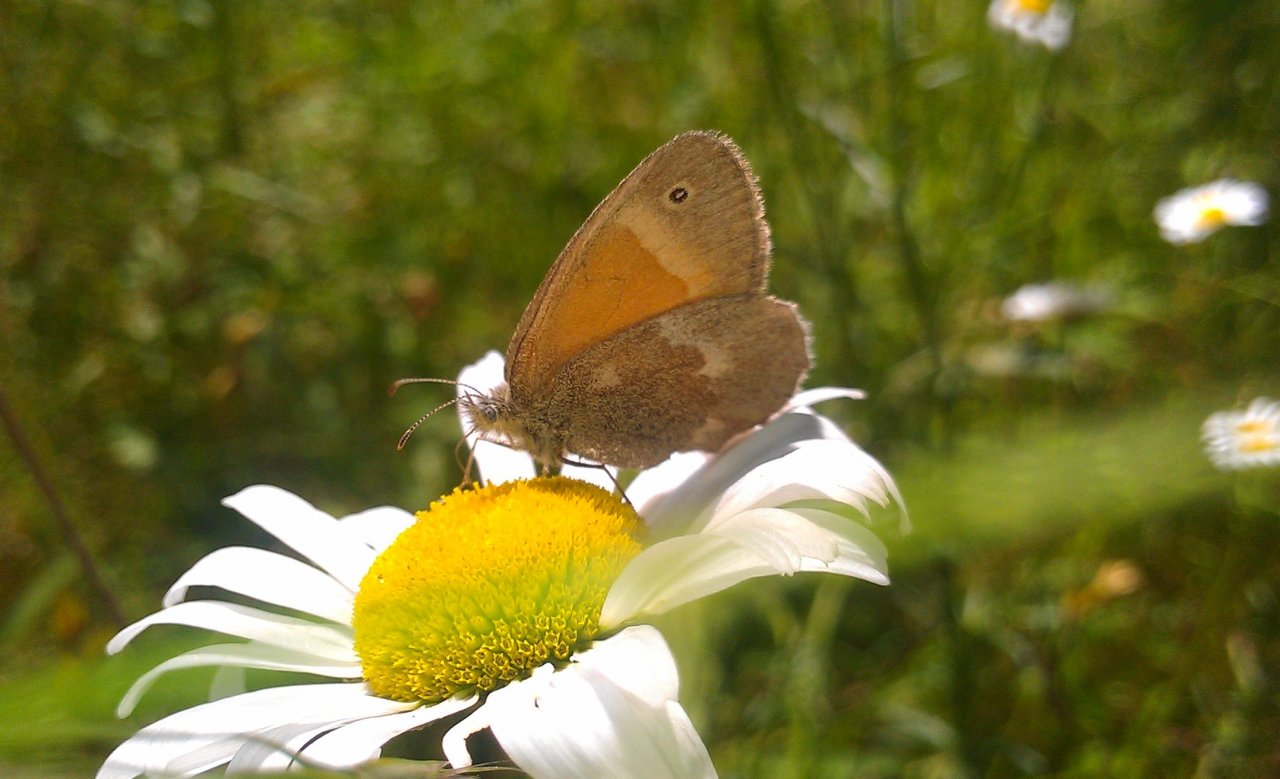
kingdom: Animalia
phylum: Arthropoda
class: Insecta
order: Lepidoptera
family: Nymphalidae
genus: Coenonympha
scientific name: Coenonympha tullia
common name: Large Heath
